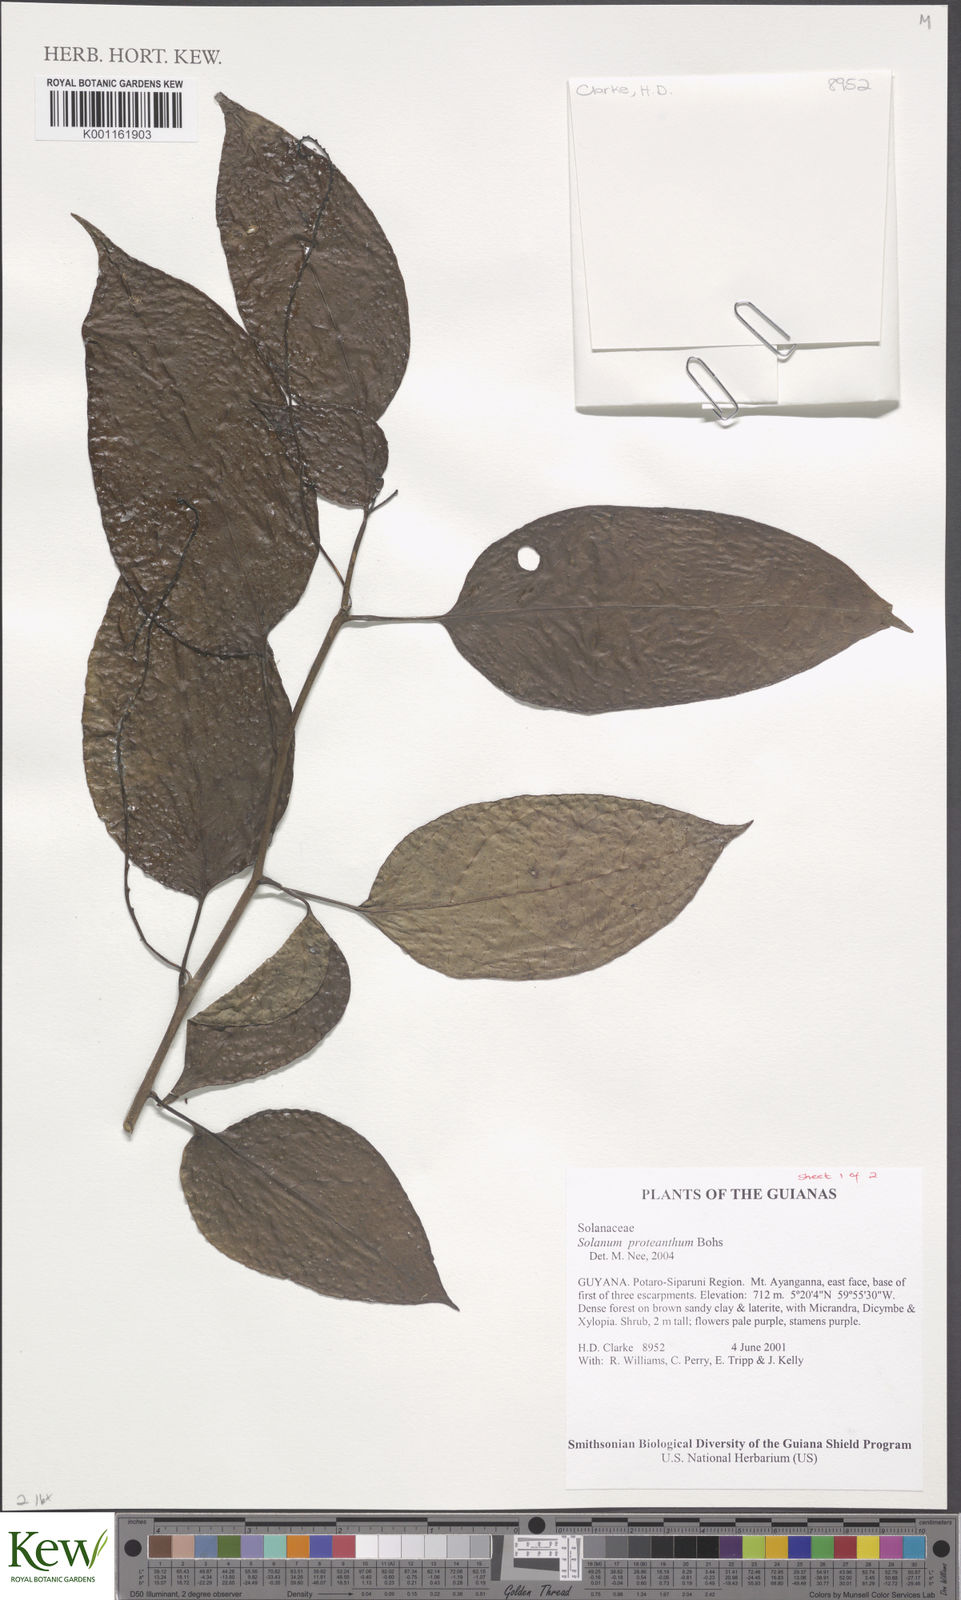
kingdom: Plantae
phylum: Tracheophyta
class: Magnoliopsida
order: Solanales
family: Solanaceae
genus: Solanum
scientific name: Solanum proteanthum
